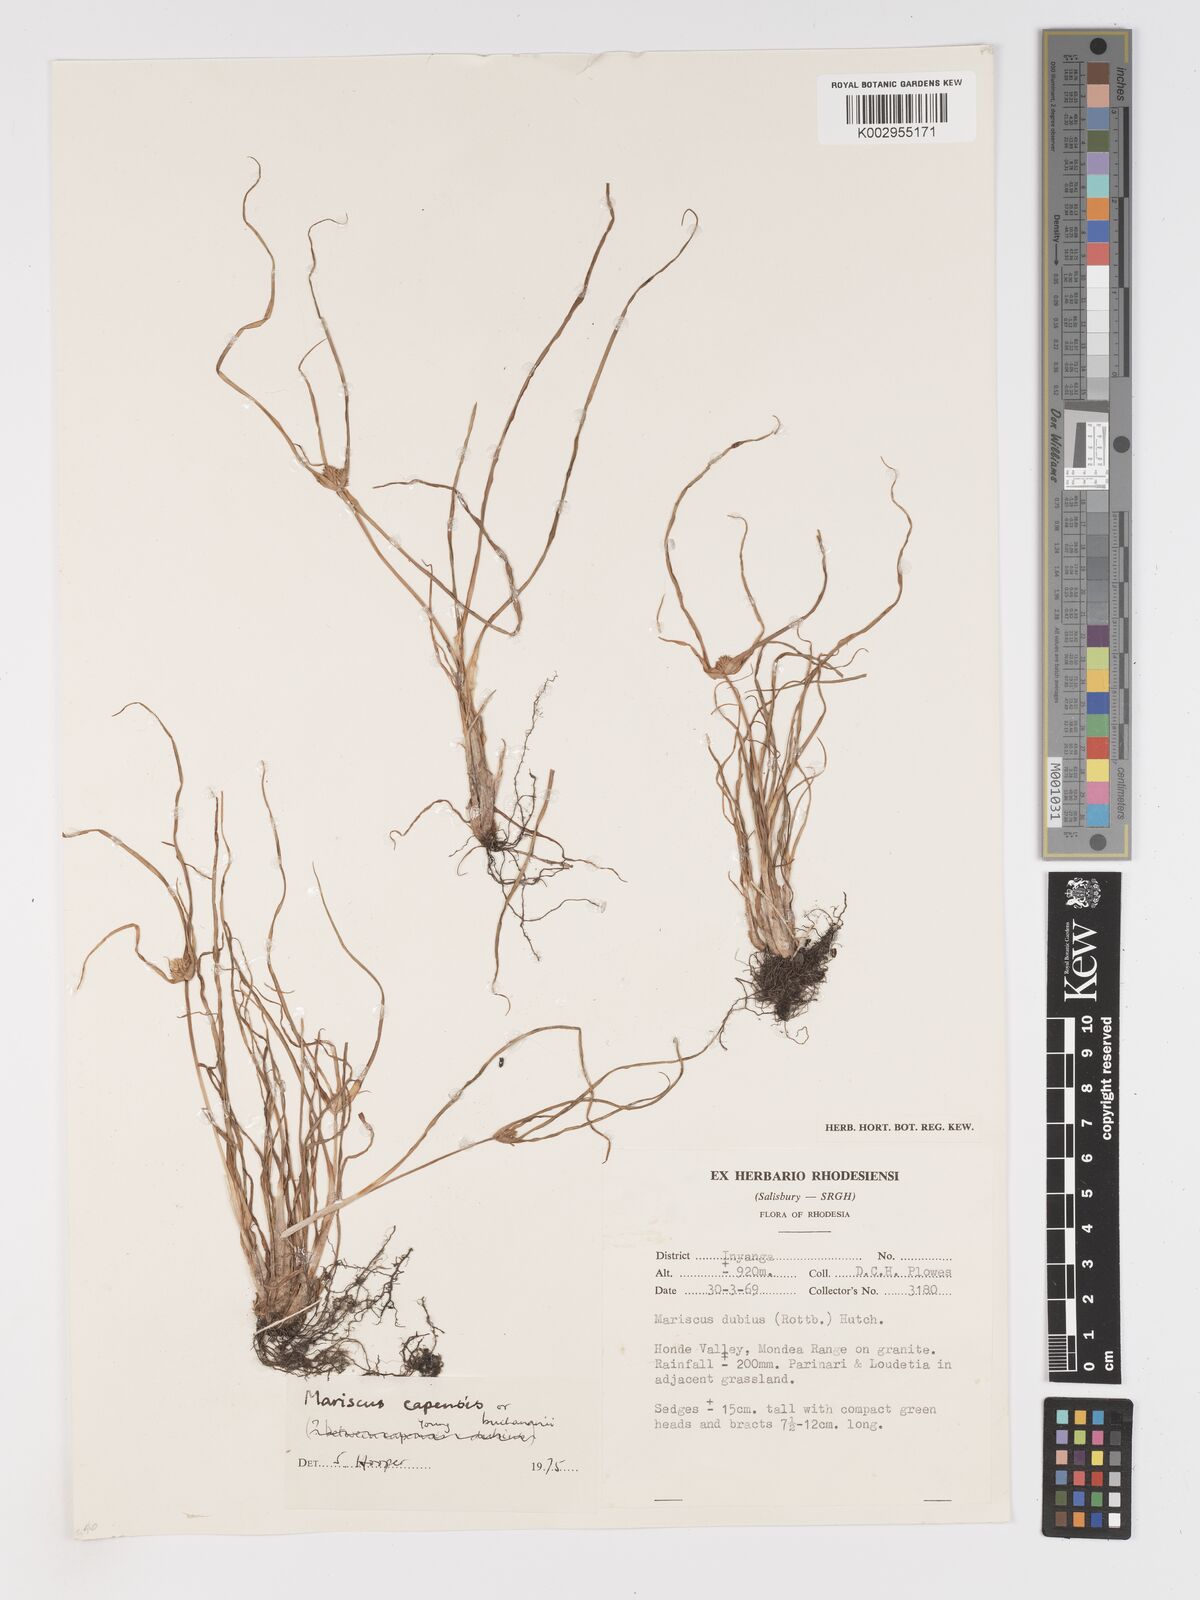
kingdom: Plantae
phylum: Tracheophyta
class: Liliopsida
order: Poales
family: Cyperaceae
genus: Cyperus
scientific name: Cyperus dubius
